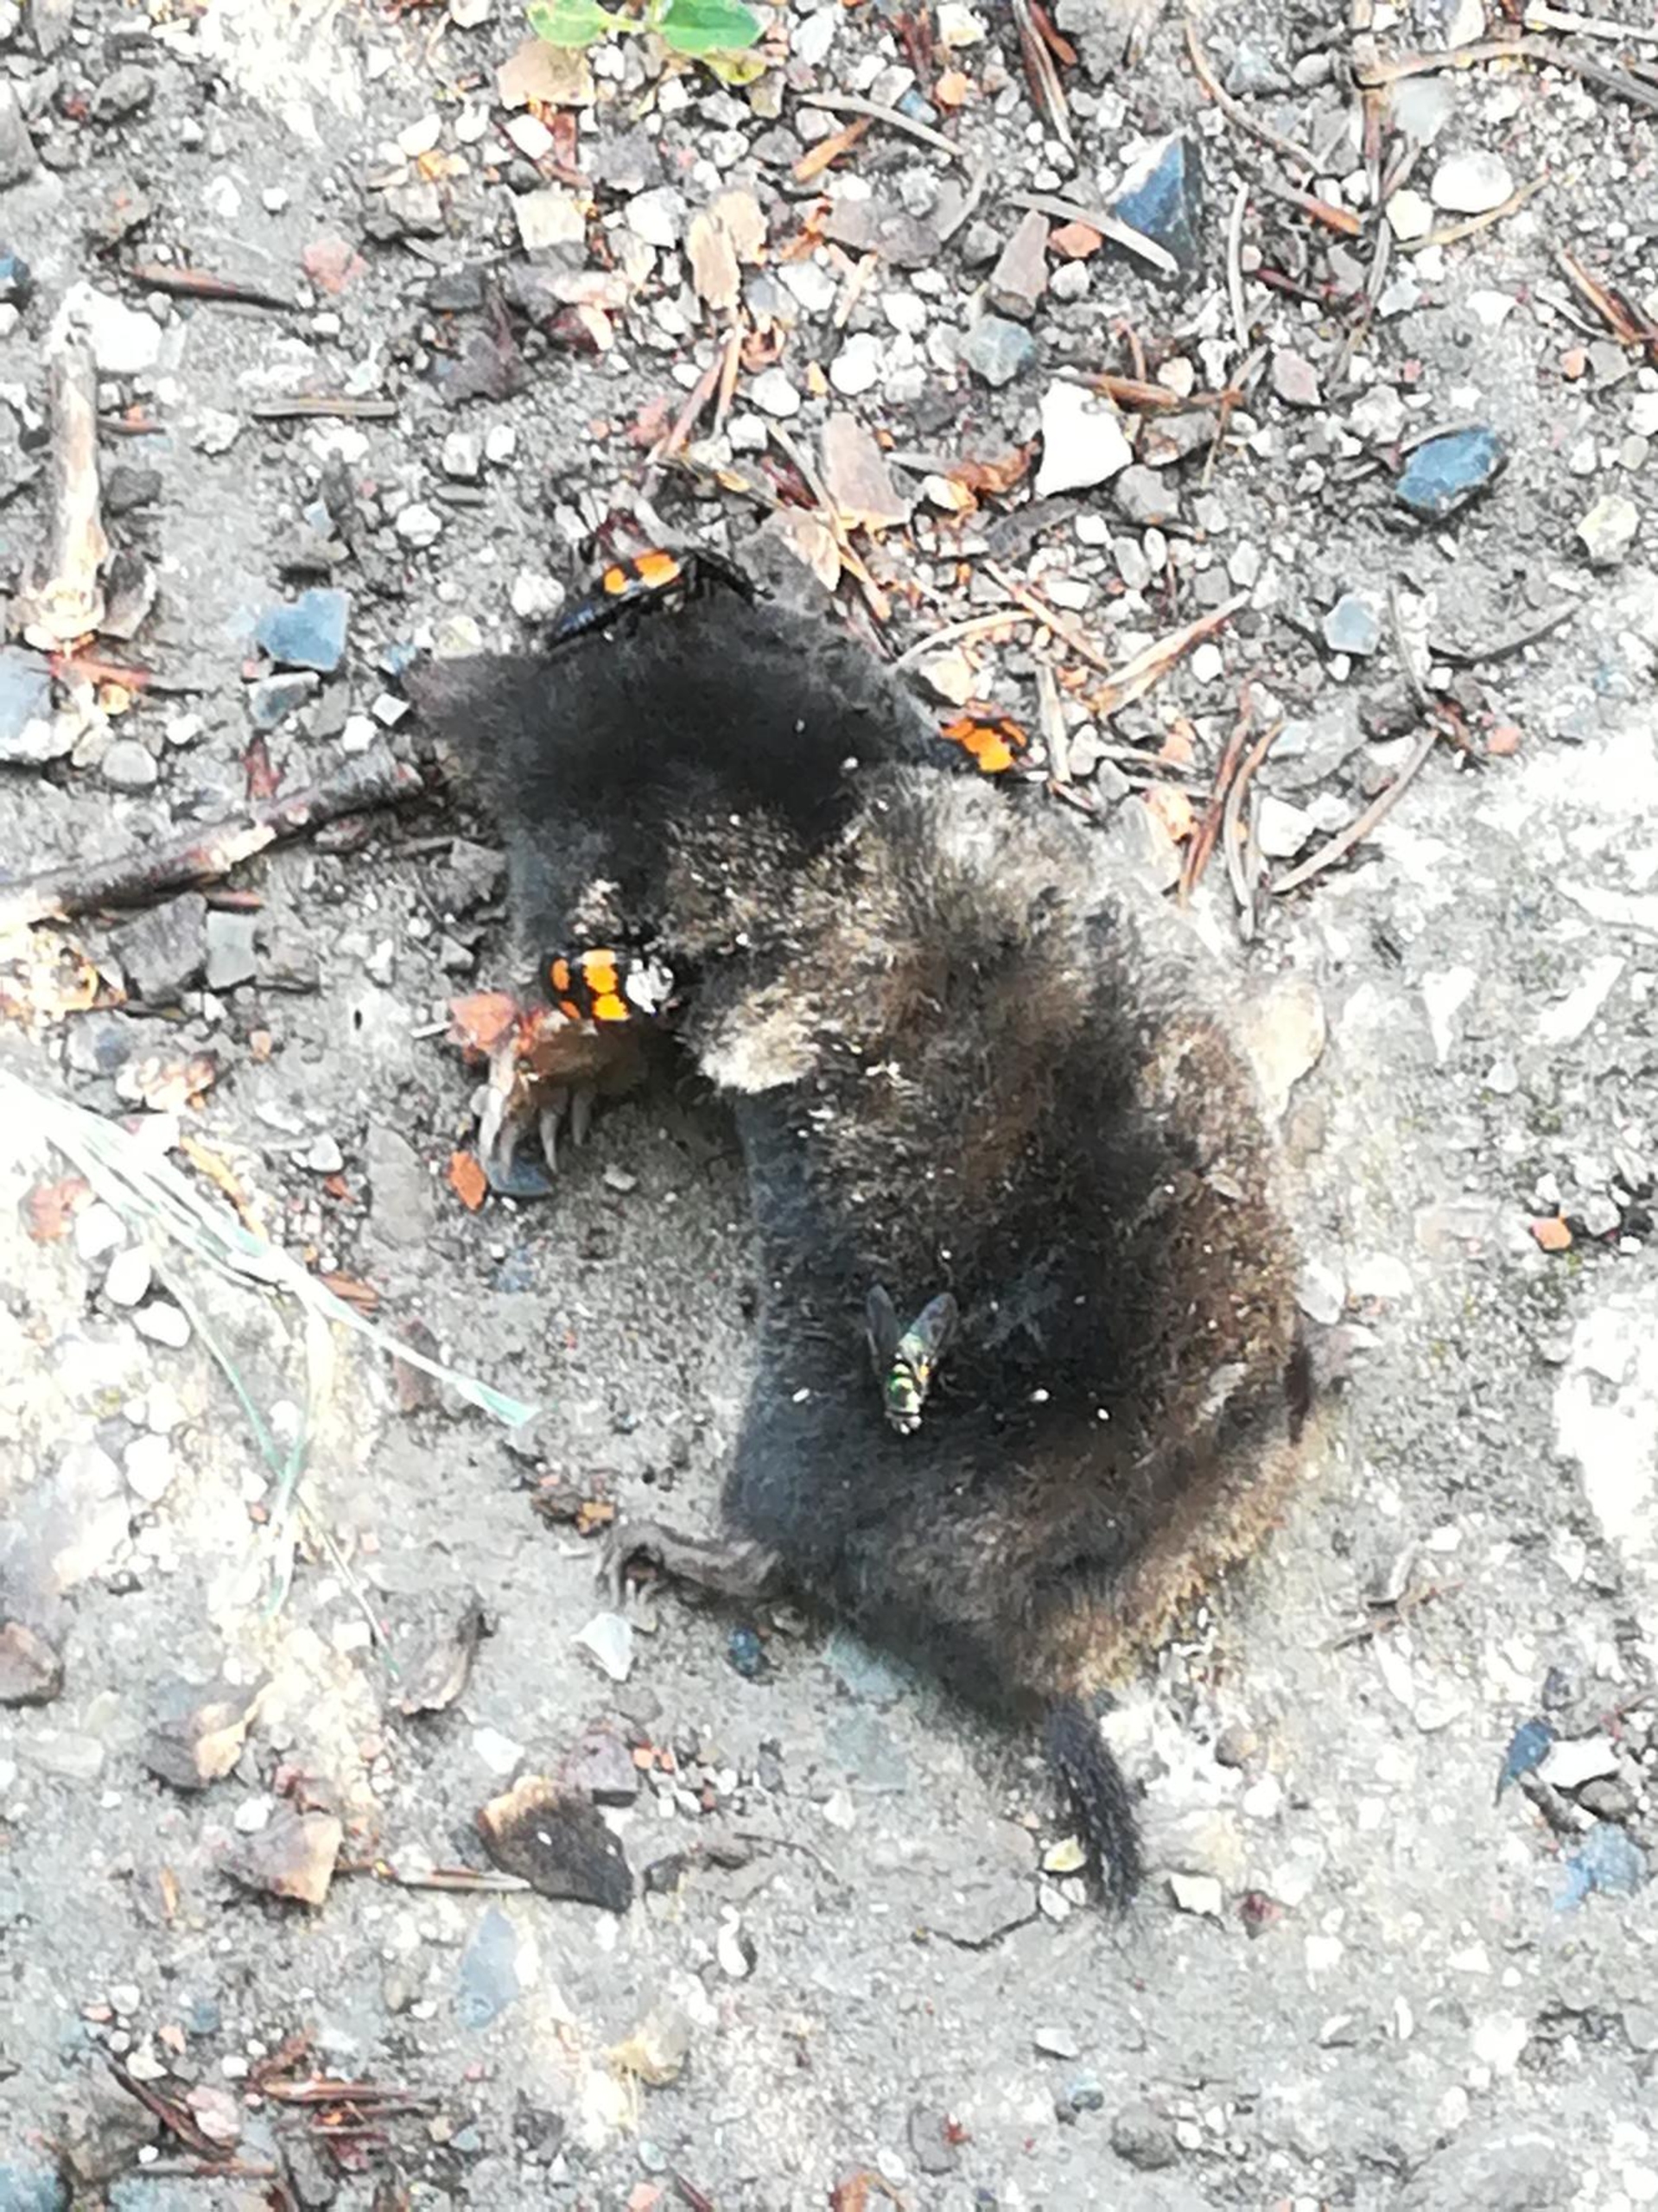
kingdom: Animalia
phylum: Chordata
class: Mammalia
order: Soricomorpha
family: Talpidae
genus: Talpa
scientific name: Talpa europaea
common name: Muldvarp
